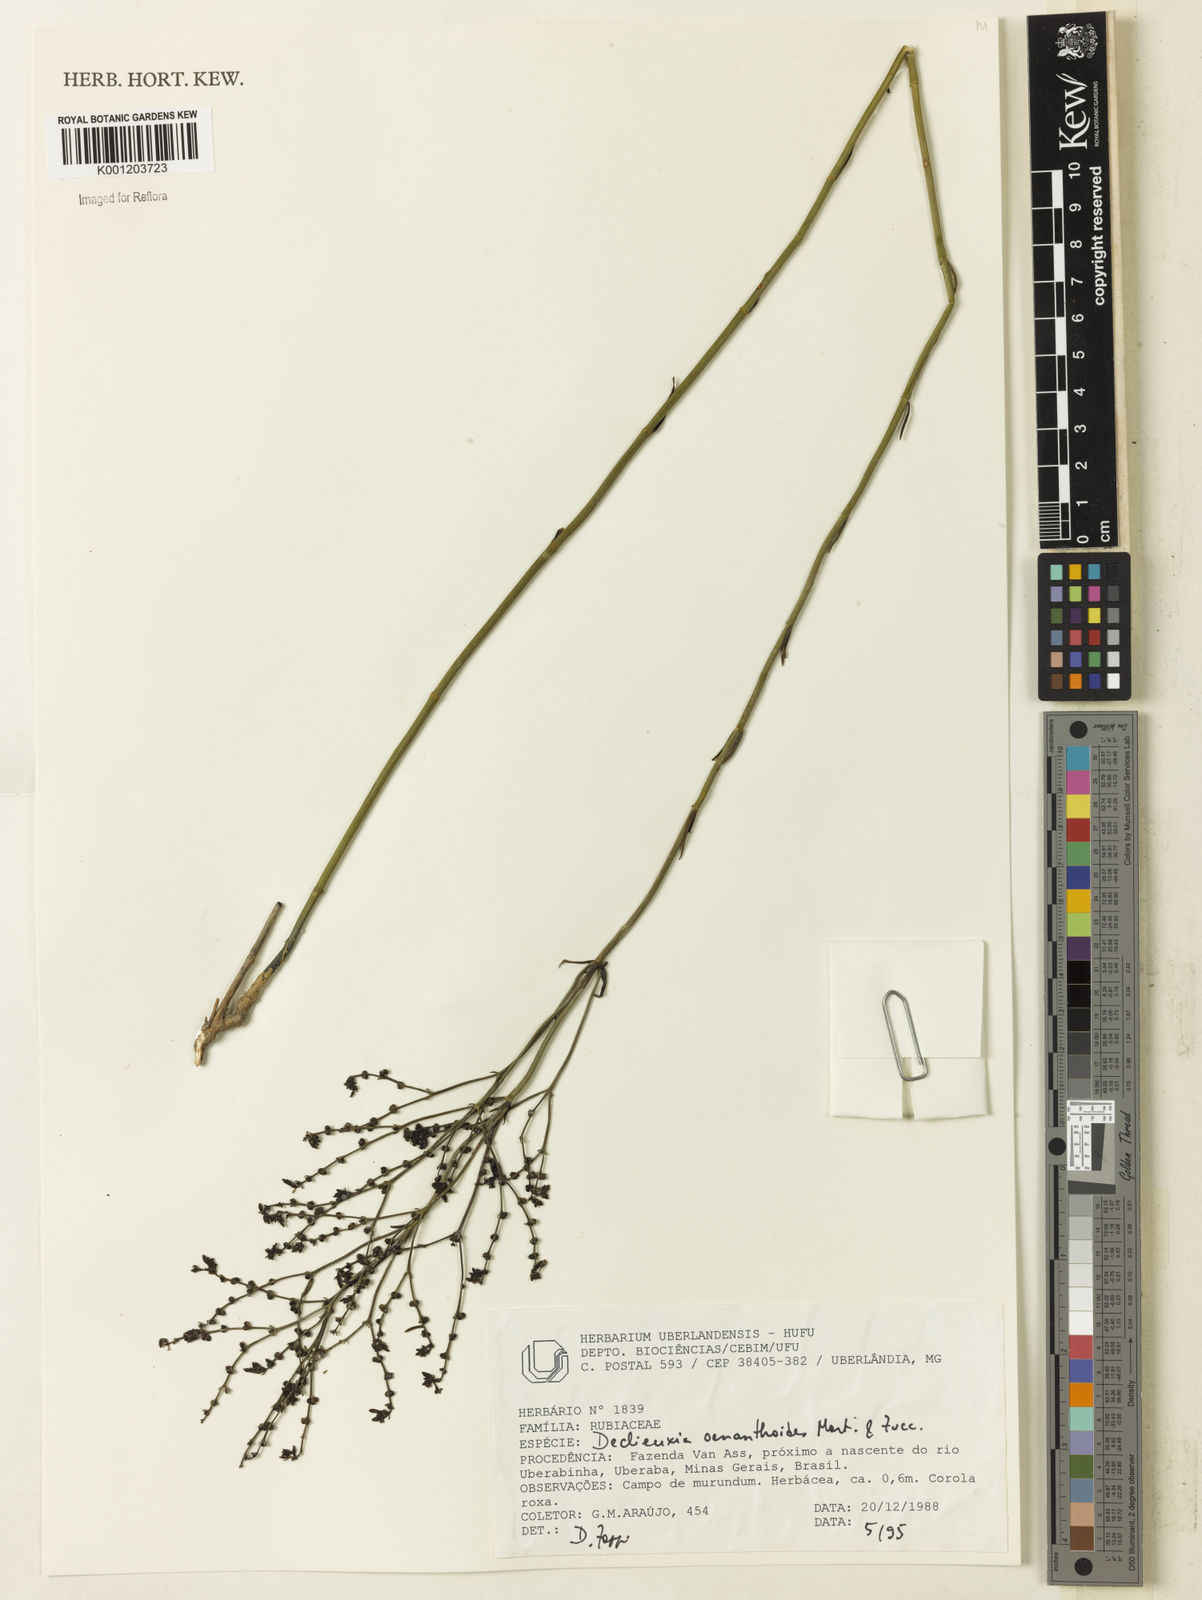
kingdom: Plantae
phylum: Tracheophyta
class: Magnoliopsida
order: Gentianales
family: Rubiaceae
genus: Declieuxia
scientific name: Declieuxia
